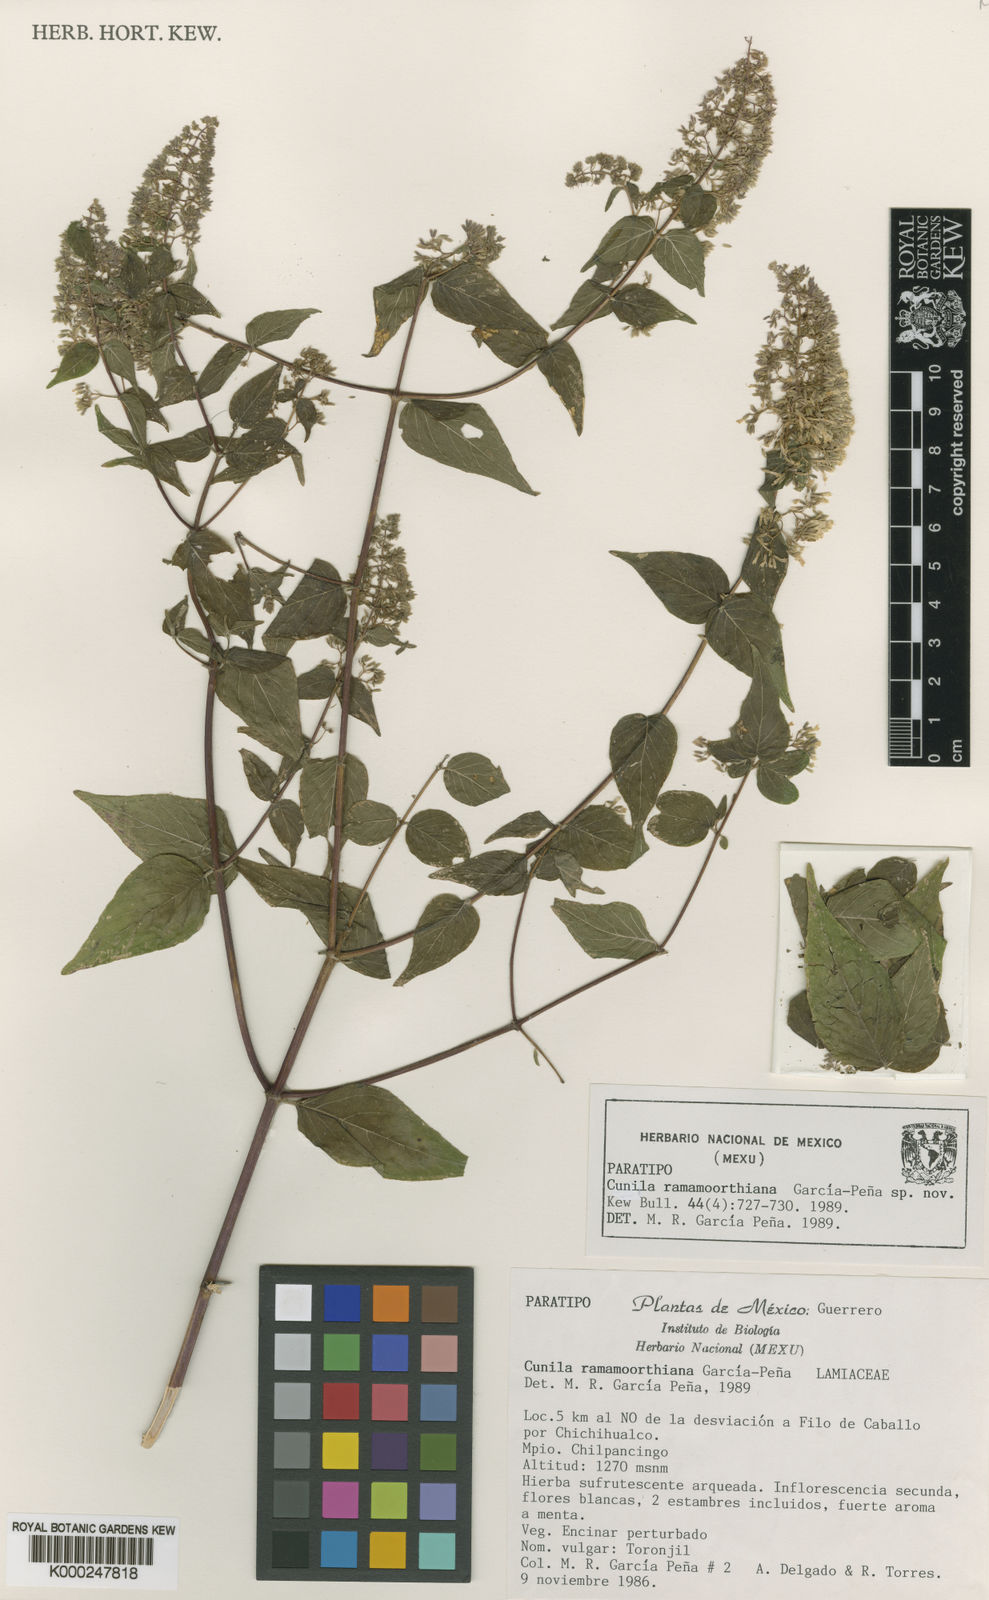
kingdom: Plantae
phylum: Tracheophyta
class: Magnoliopsida
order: Lamiales
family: Lamiaceae
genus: Cunila
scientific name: Cunila
